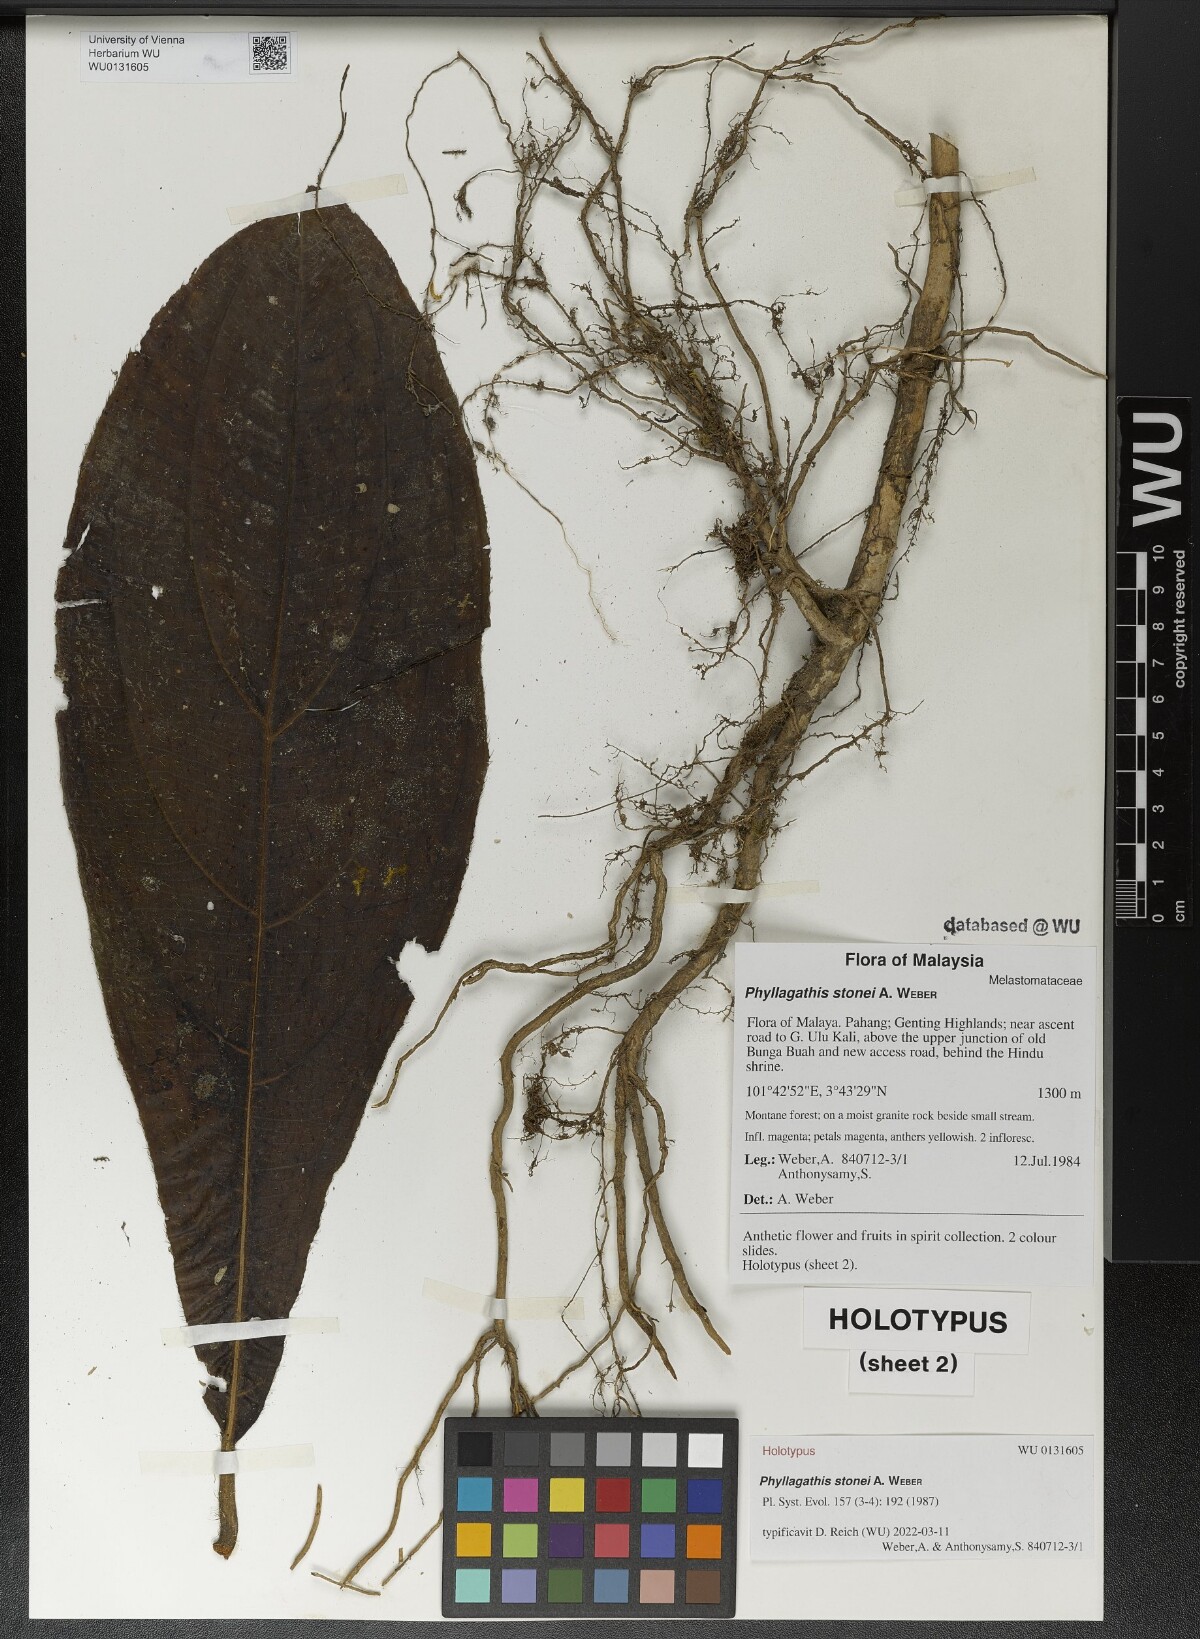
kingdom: Plantae
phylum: Tracheophyta
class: Magnoliopsida
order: Myrtales
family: Melastomataceae
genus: Phyllagathis
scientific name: Phyllagathis tuberculata
